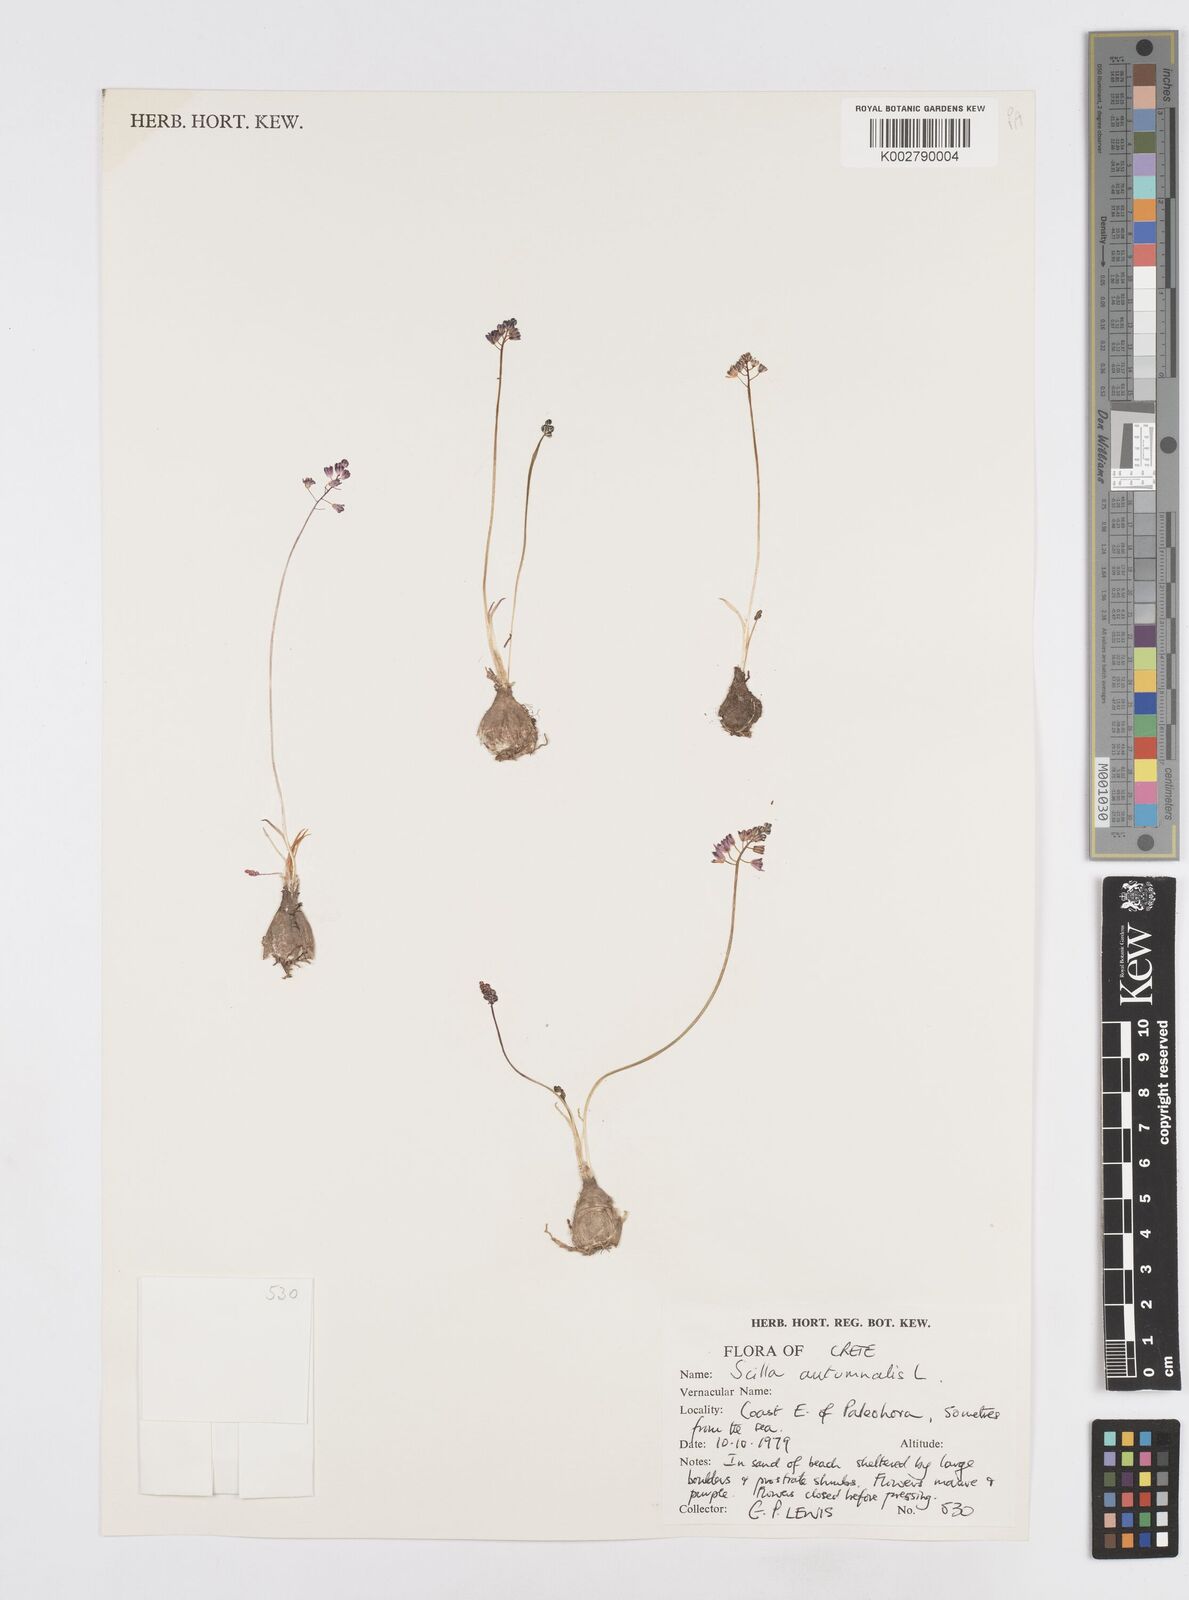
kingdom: Plantae
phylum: Tracheophyta
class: Liliopsida
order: Asparagales
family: Asparagaceae
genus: Prospero
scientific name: Prospero autumnale
